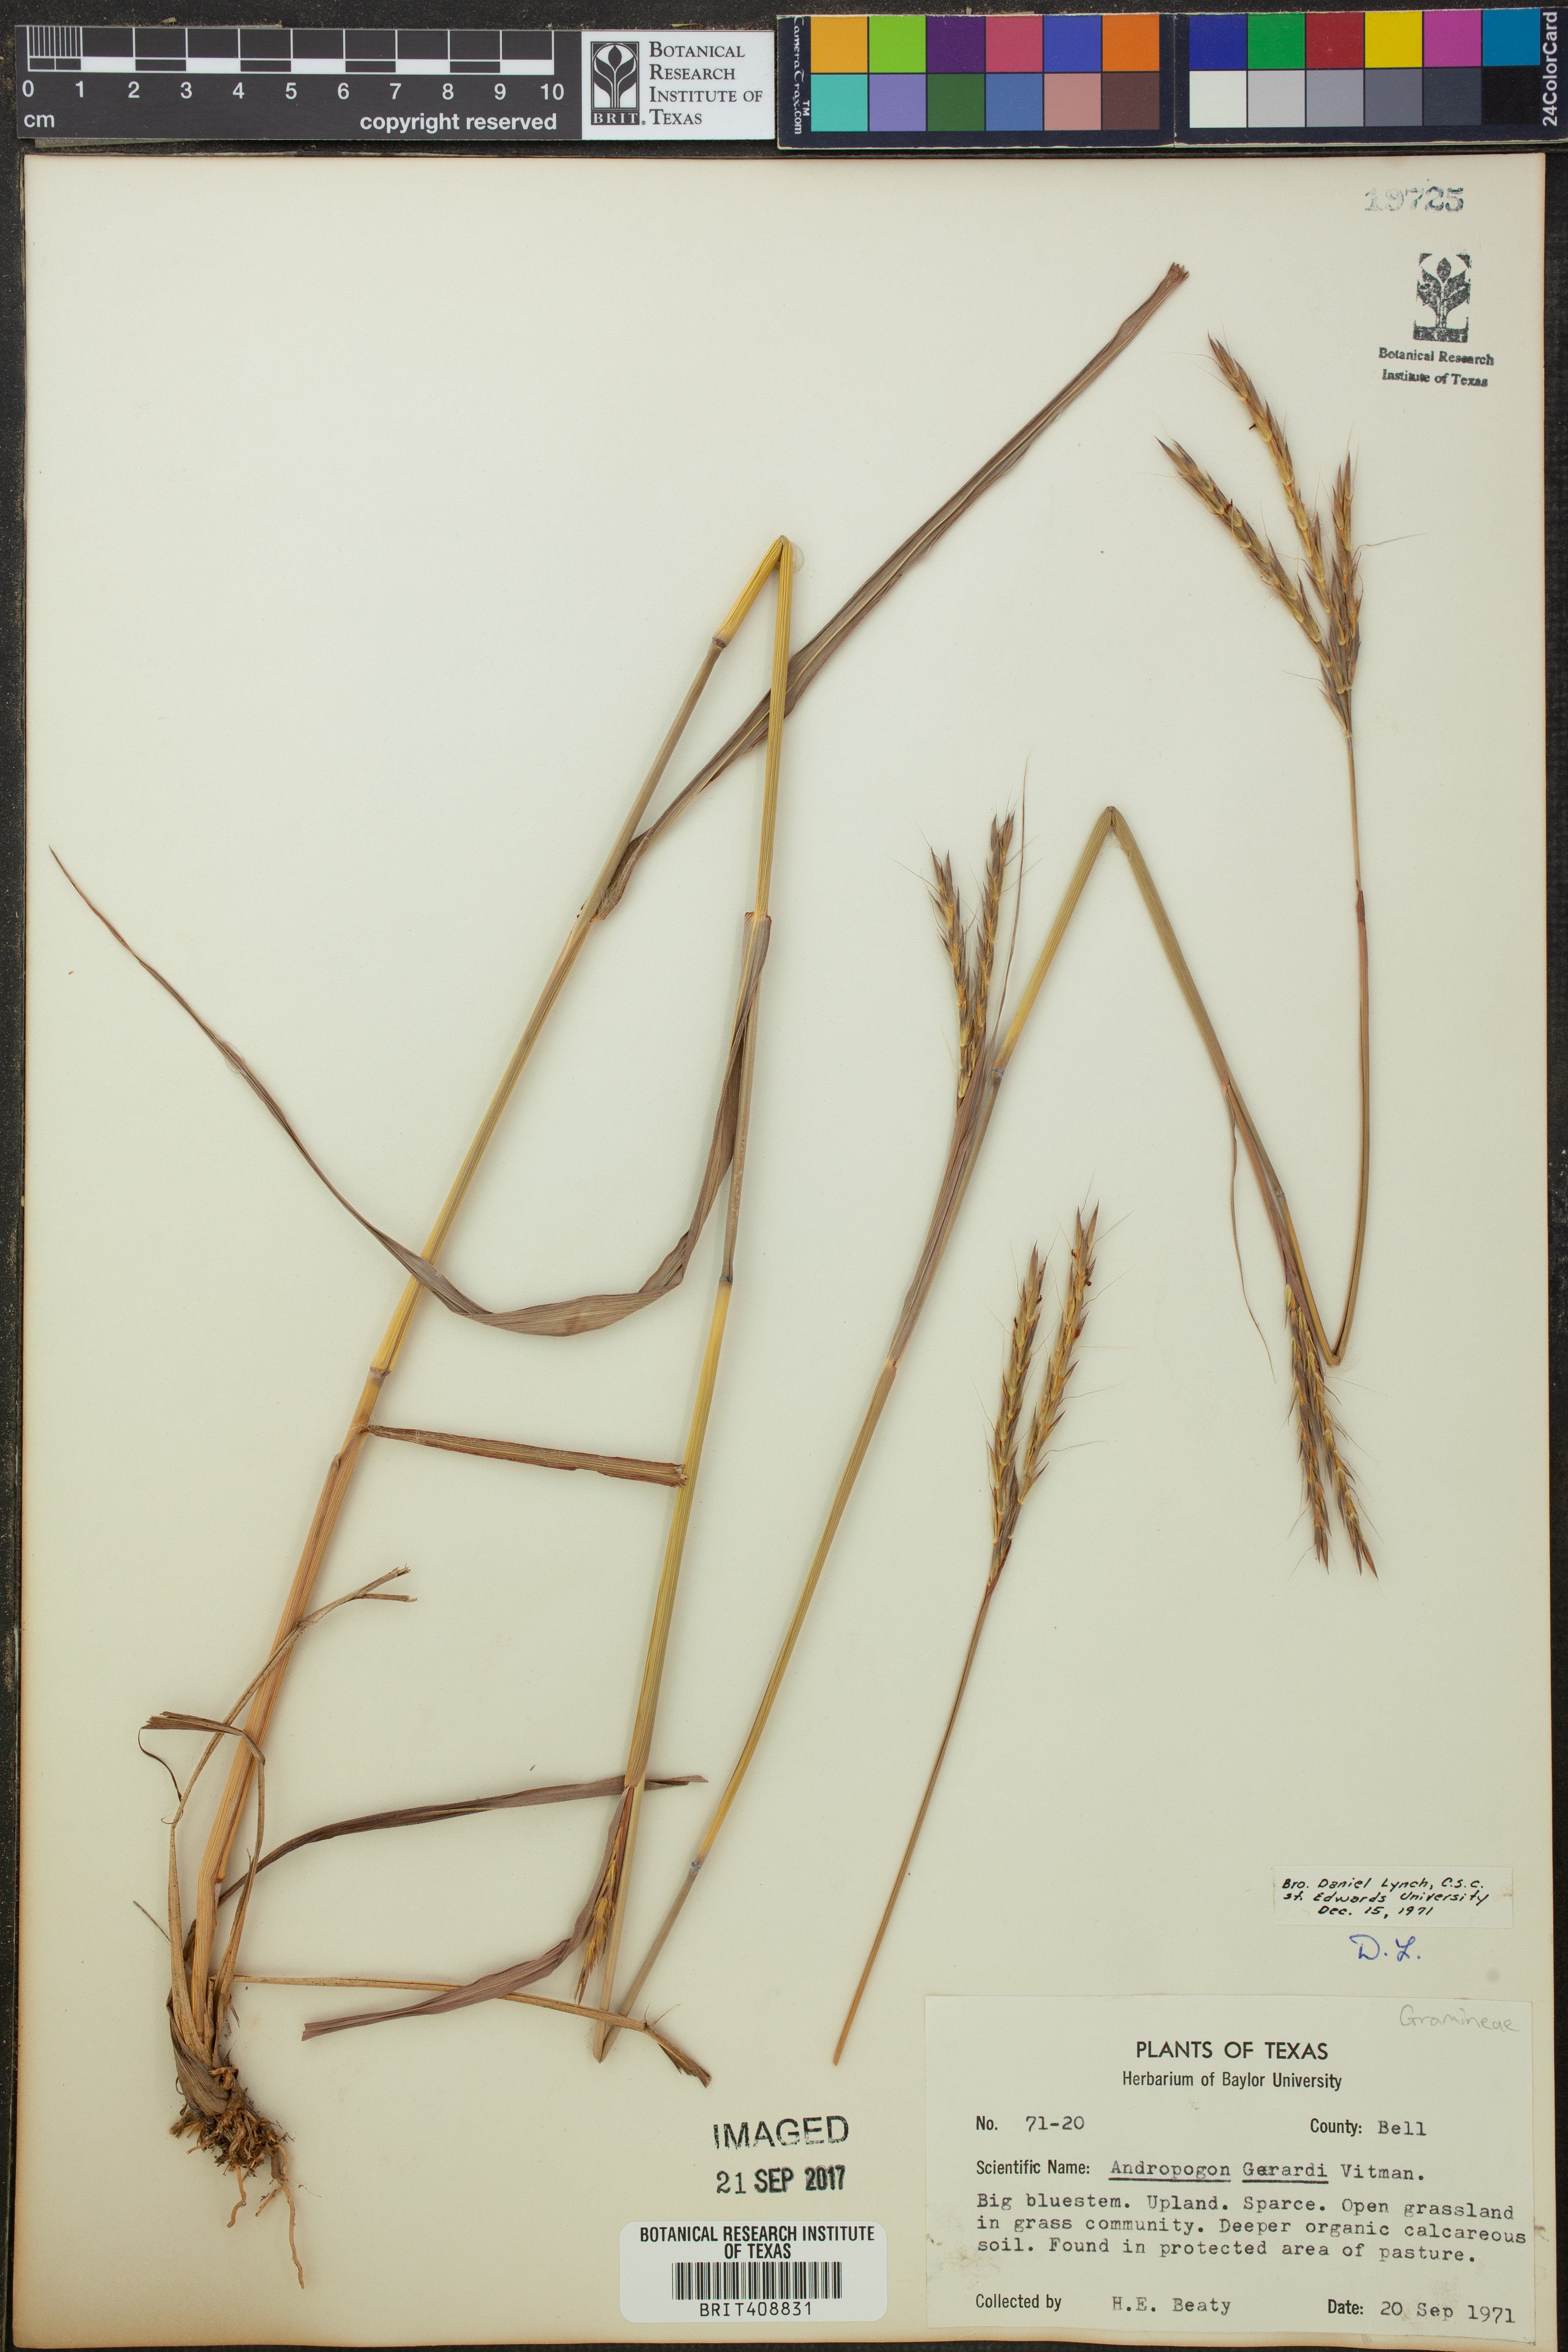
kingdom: Plantae
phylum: Tracheophyta
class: Liliopsida
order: Poales
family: Poaceae
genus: Andropogon
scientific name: Andropogon gerardi
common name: Big bluestem
